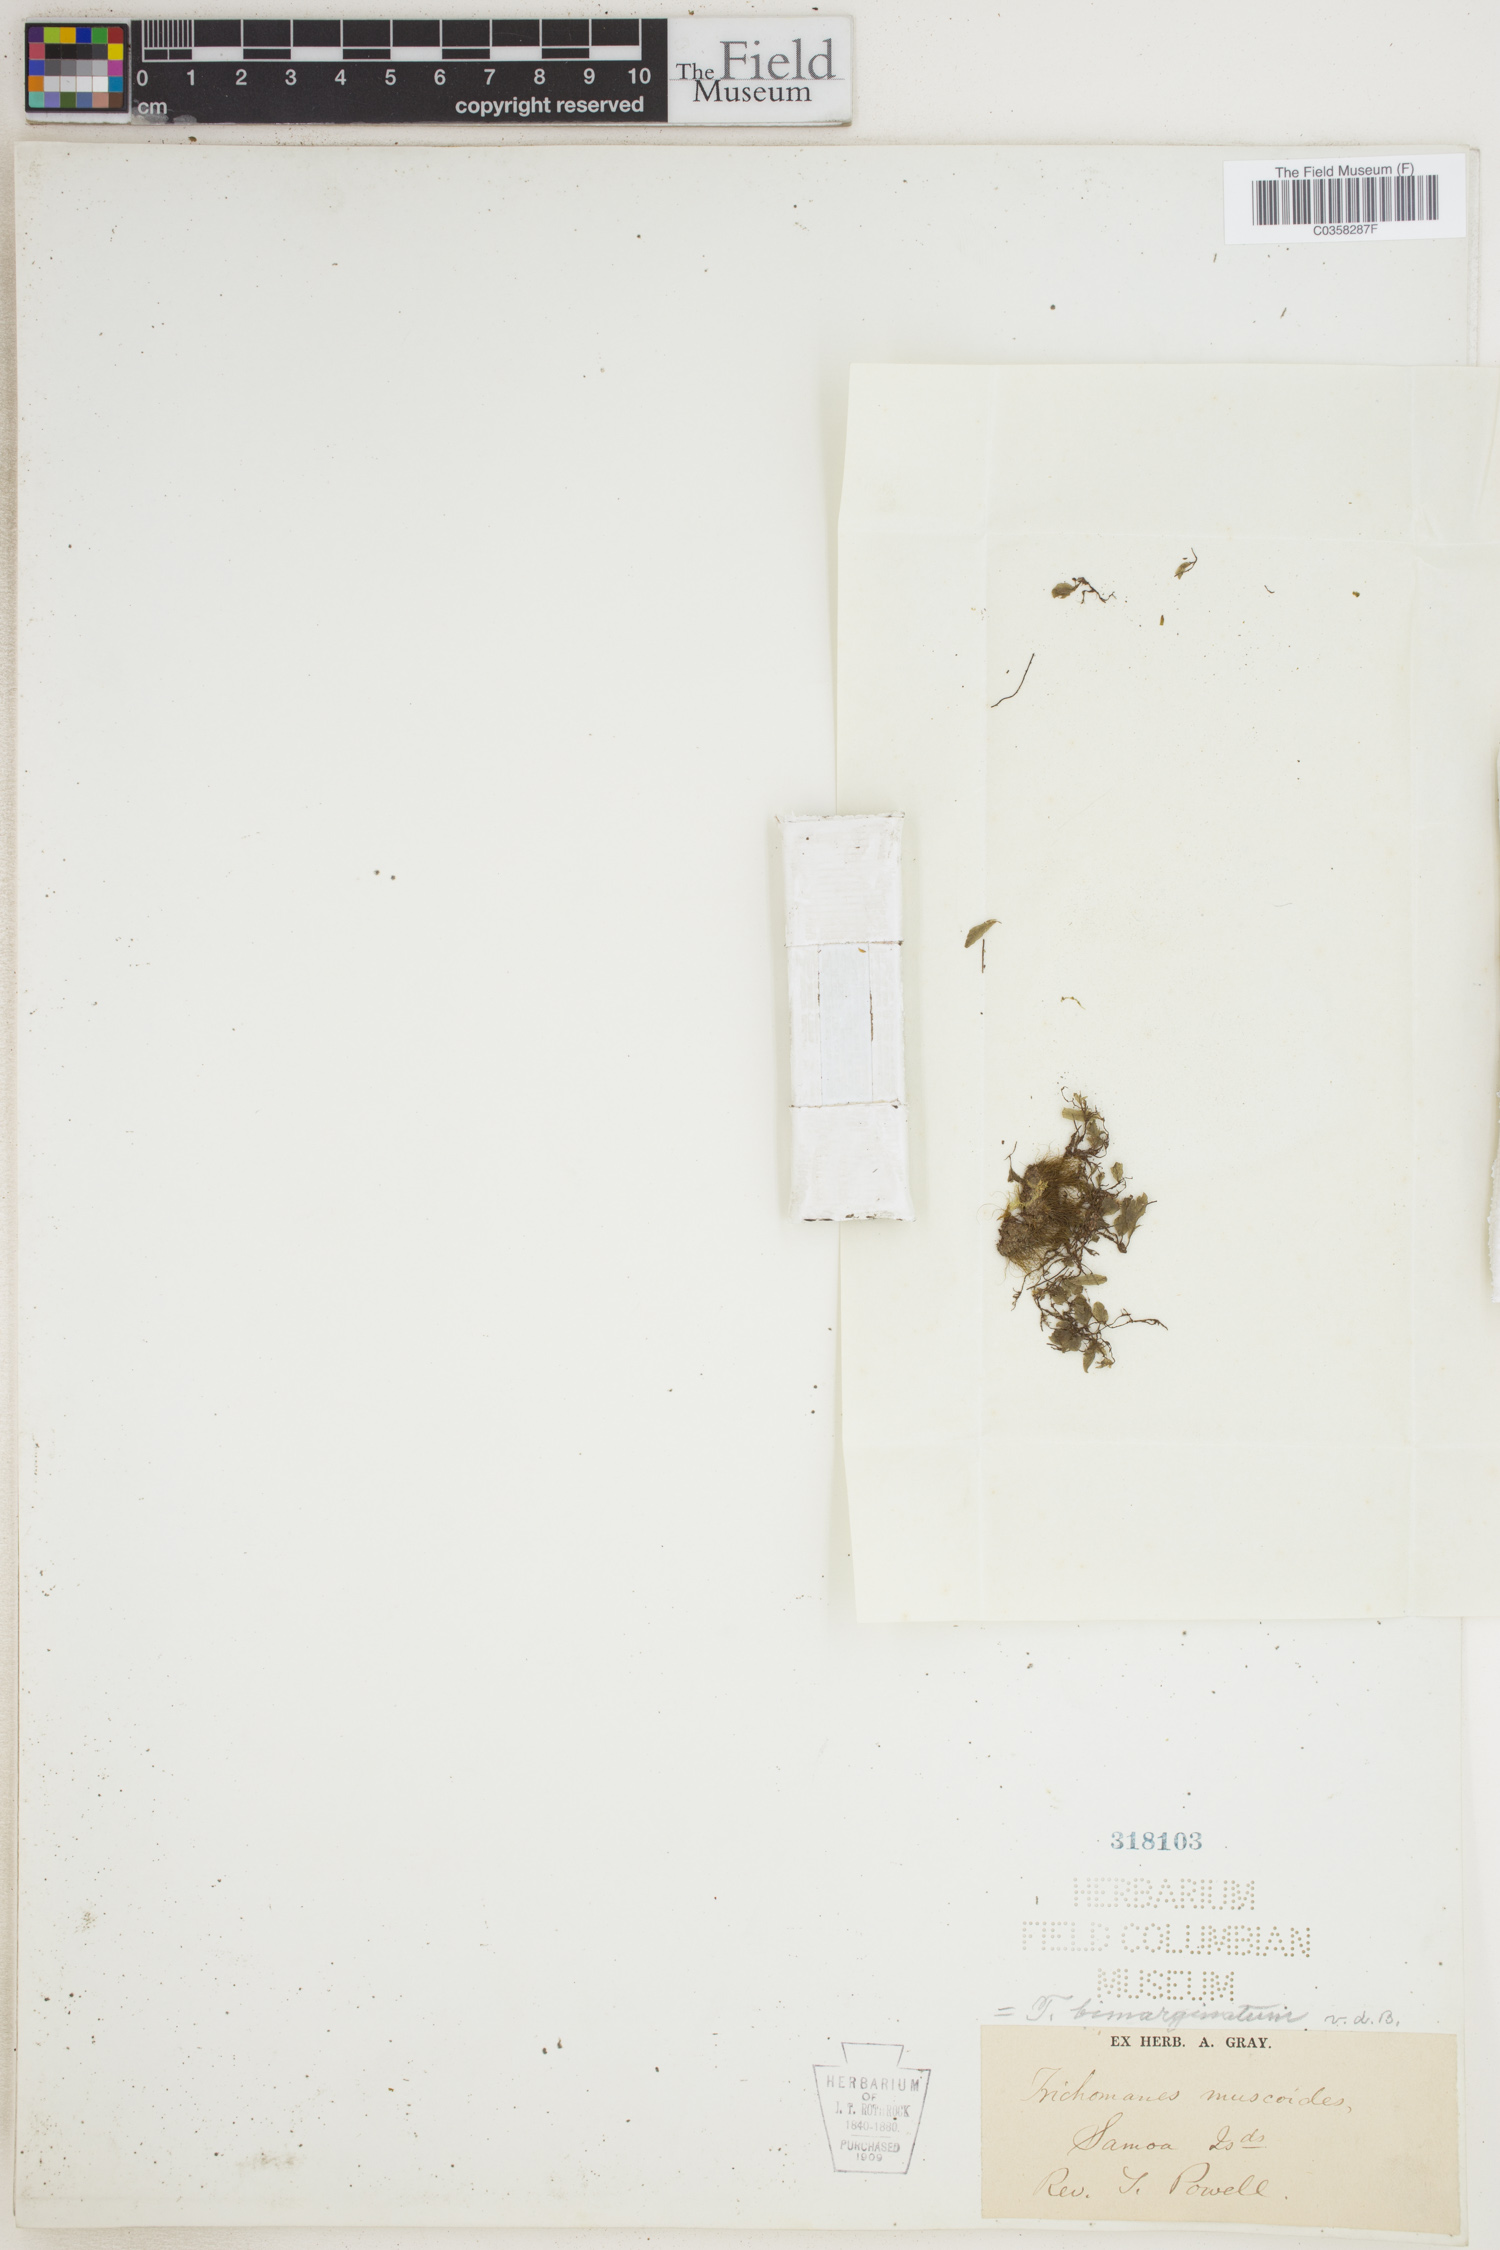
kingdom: Plantae
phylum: Tracheophyta
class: Polypodiopsida
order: Hymenophyllales
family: Hymenophyllaceae
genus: Didymoglossum
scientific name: Didymoglossum bimarginatum
